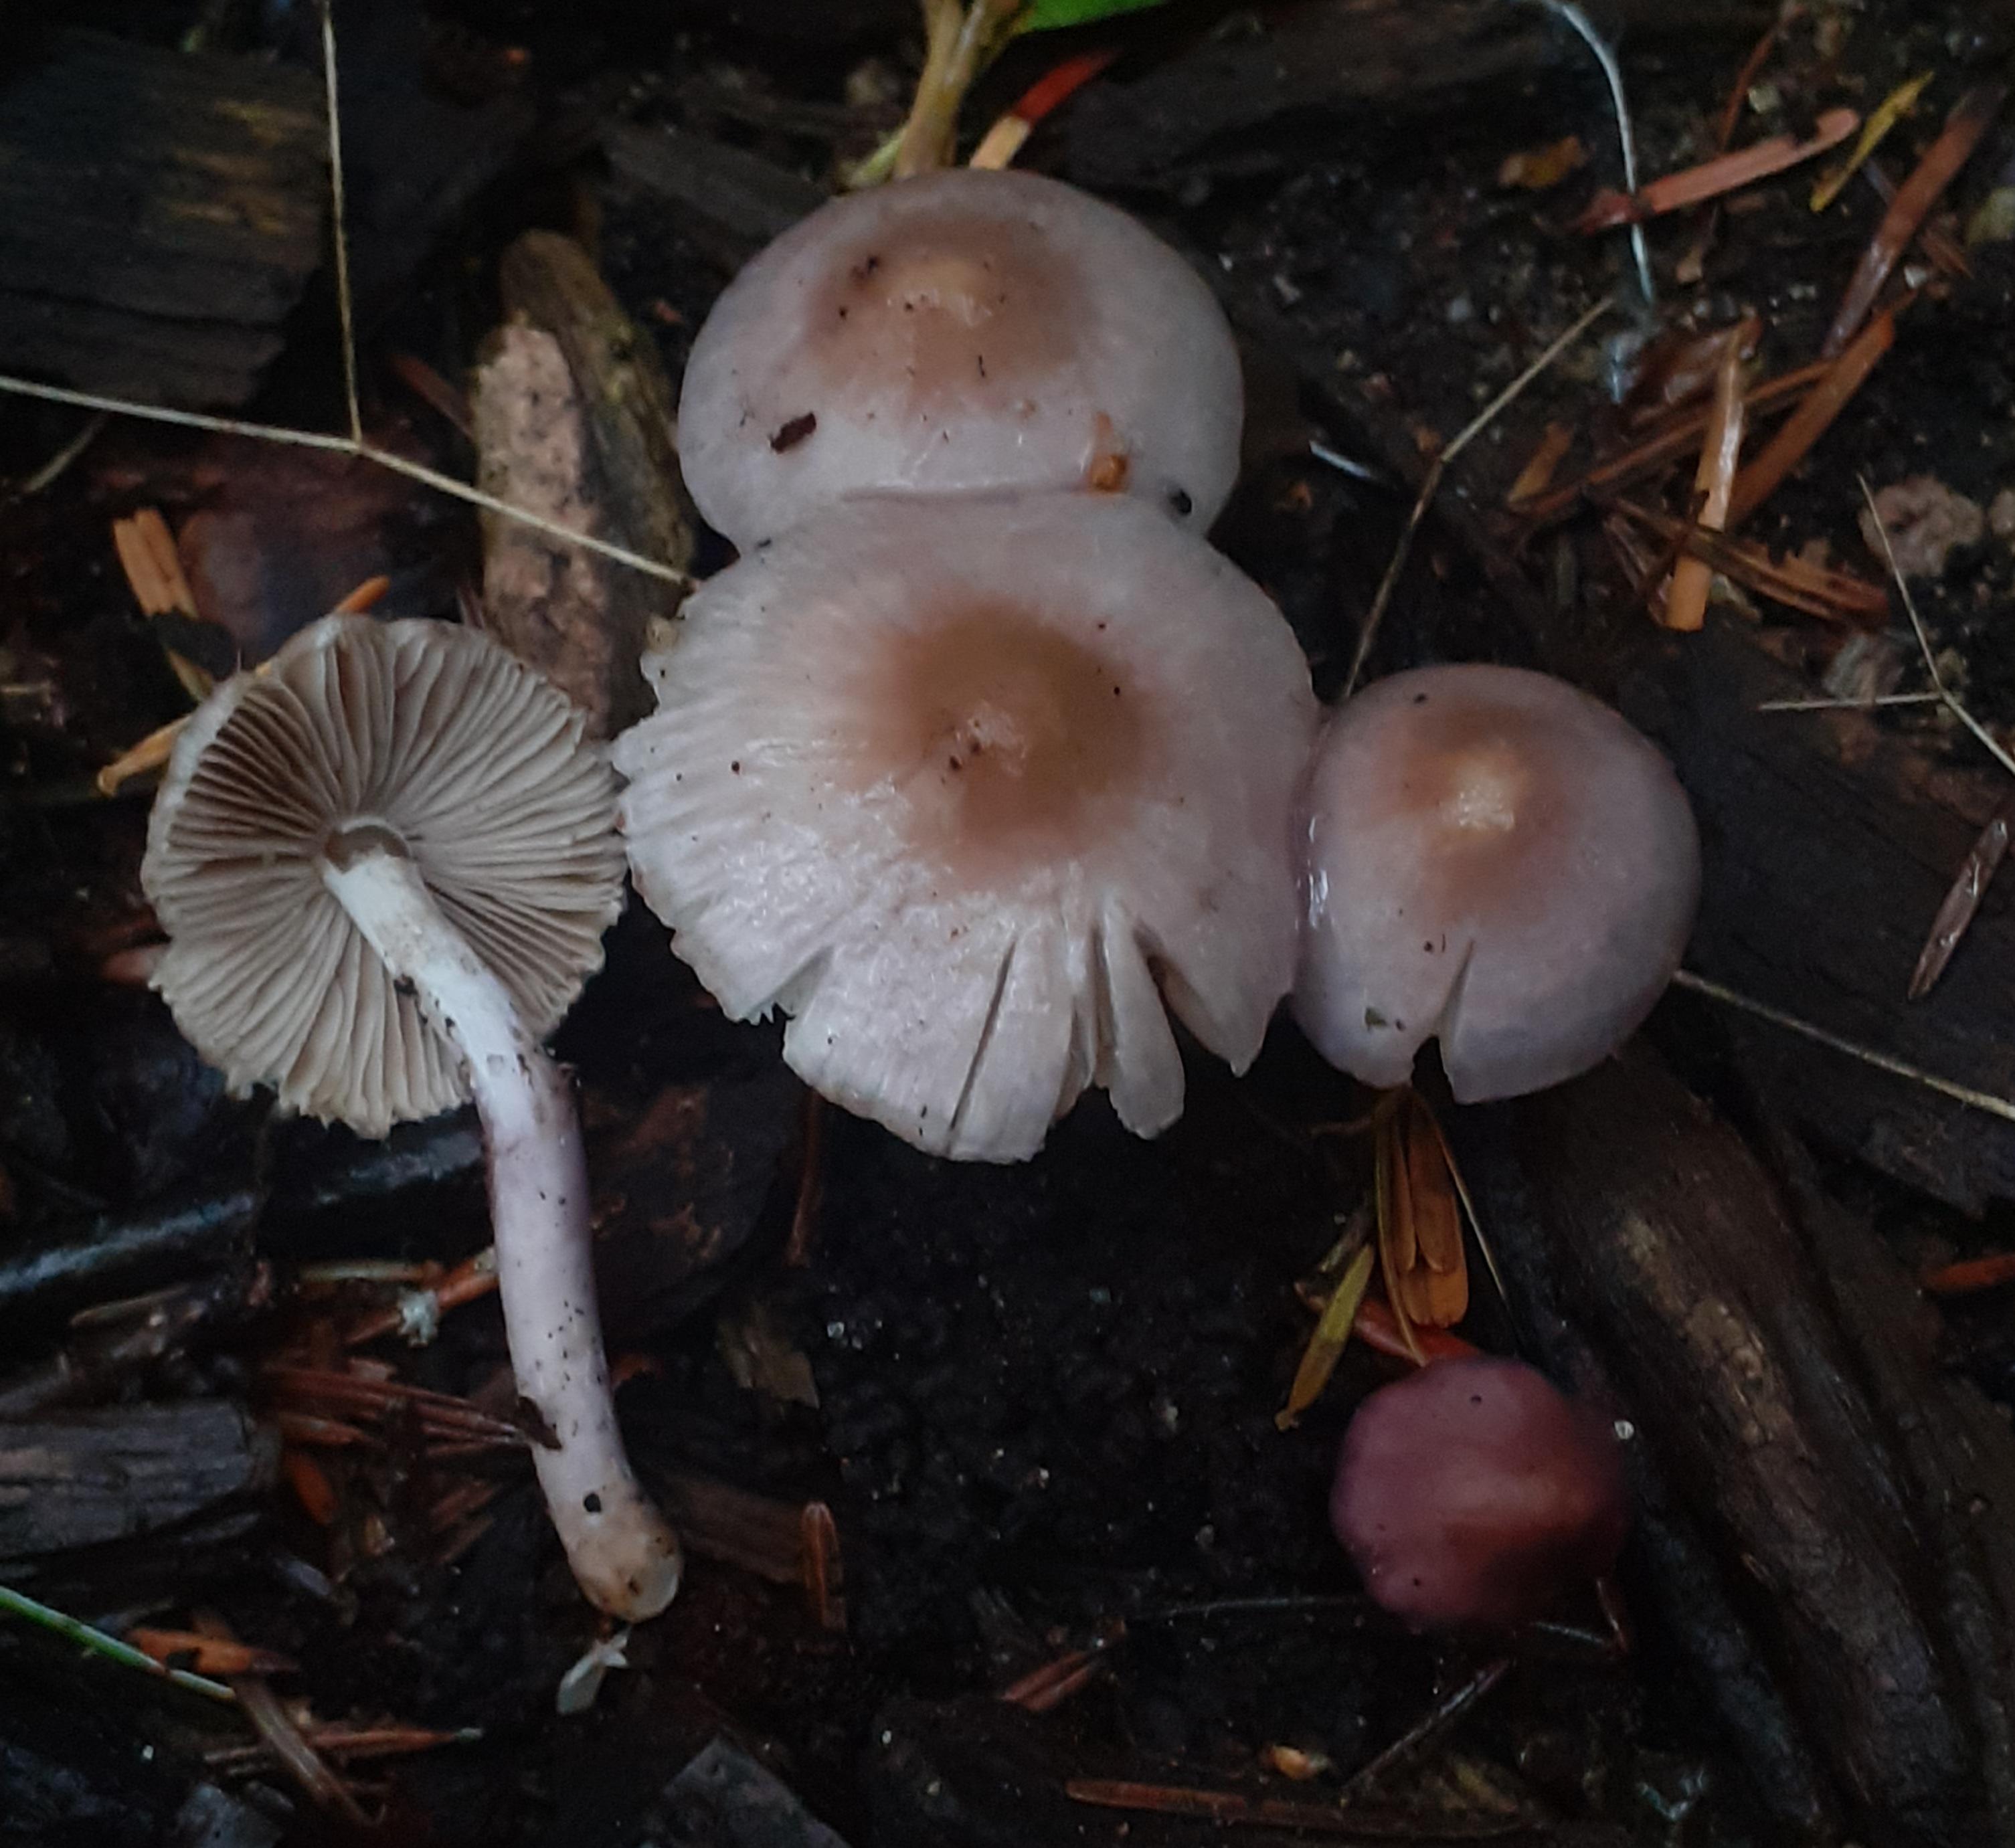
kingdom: Fungi
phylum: Basidiomycota
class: Agaricomycetes
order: Agaricales
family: Inocybaceae
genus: Inocybe
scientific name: Inocybe geophylla
